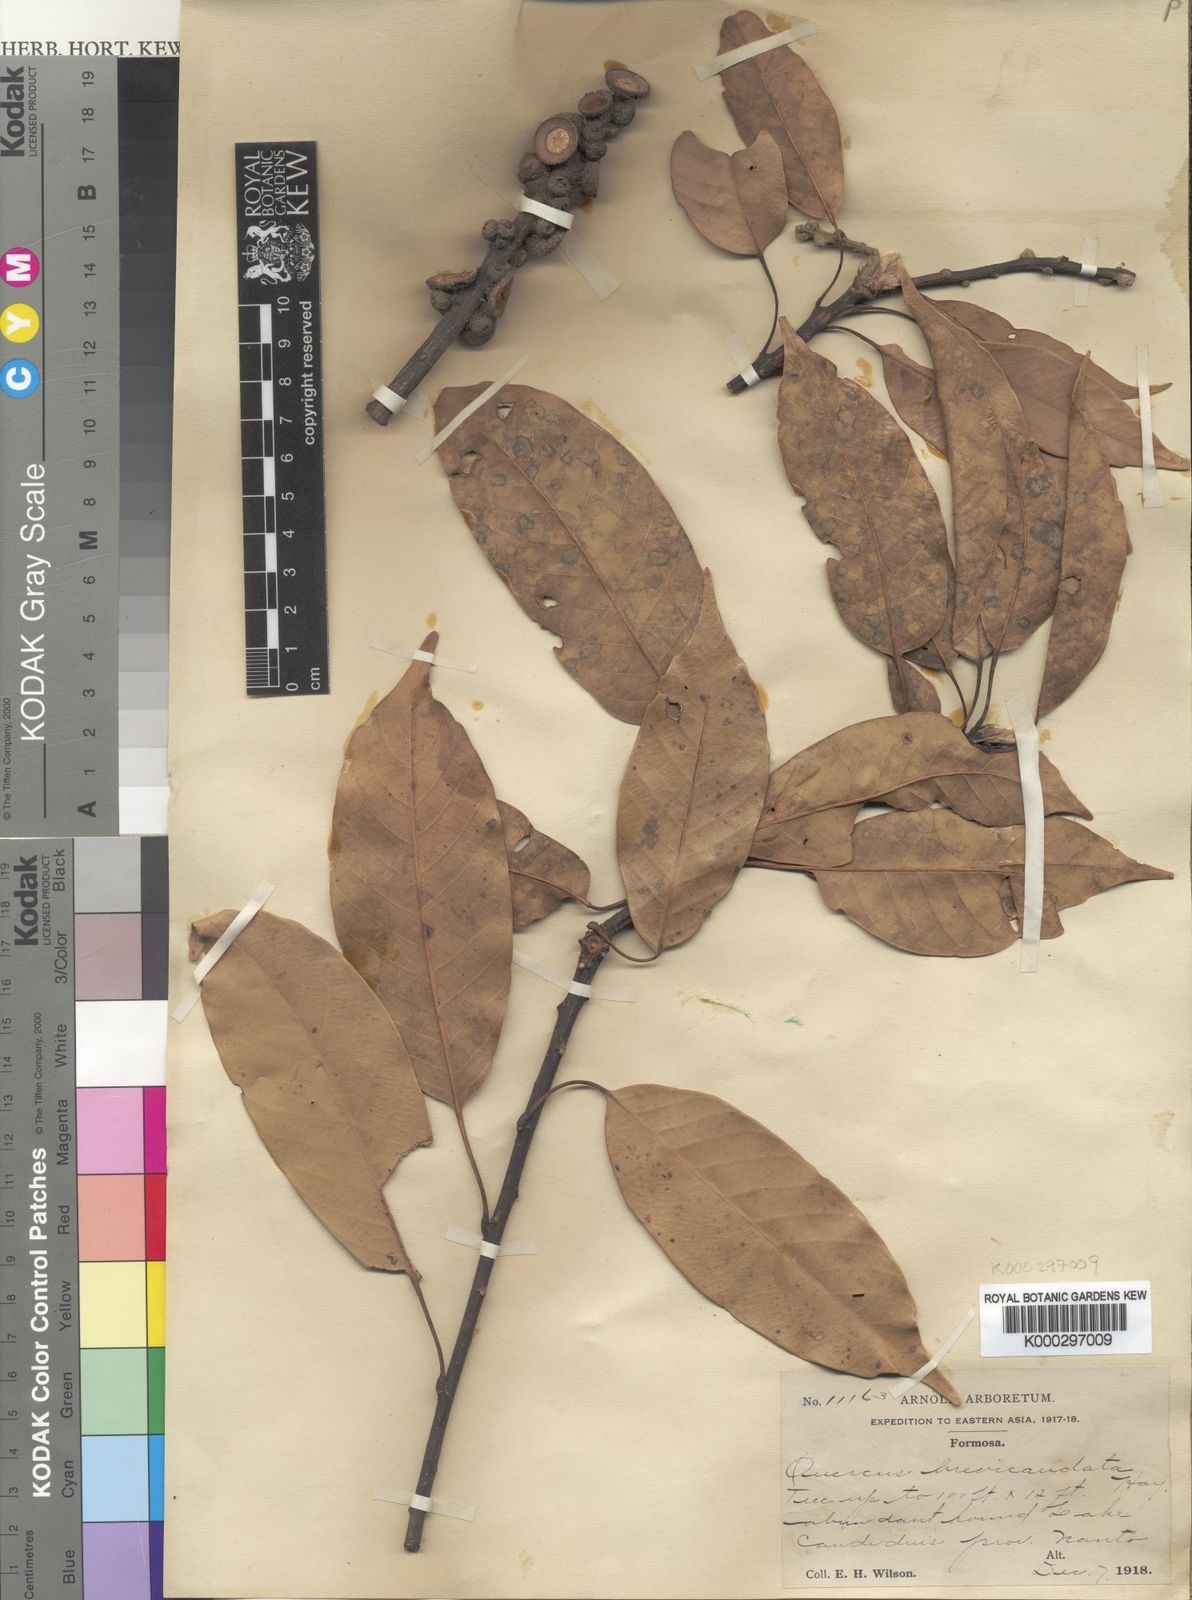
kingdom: Plantae
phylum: Tracheophyta
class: Magnoliopsida
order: Fagales
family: Fagaceae
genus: Lithocarpus
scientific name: Lithocarpus
